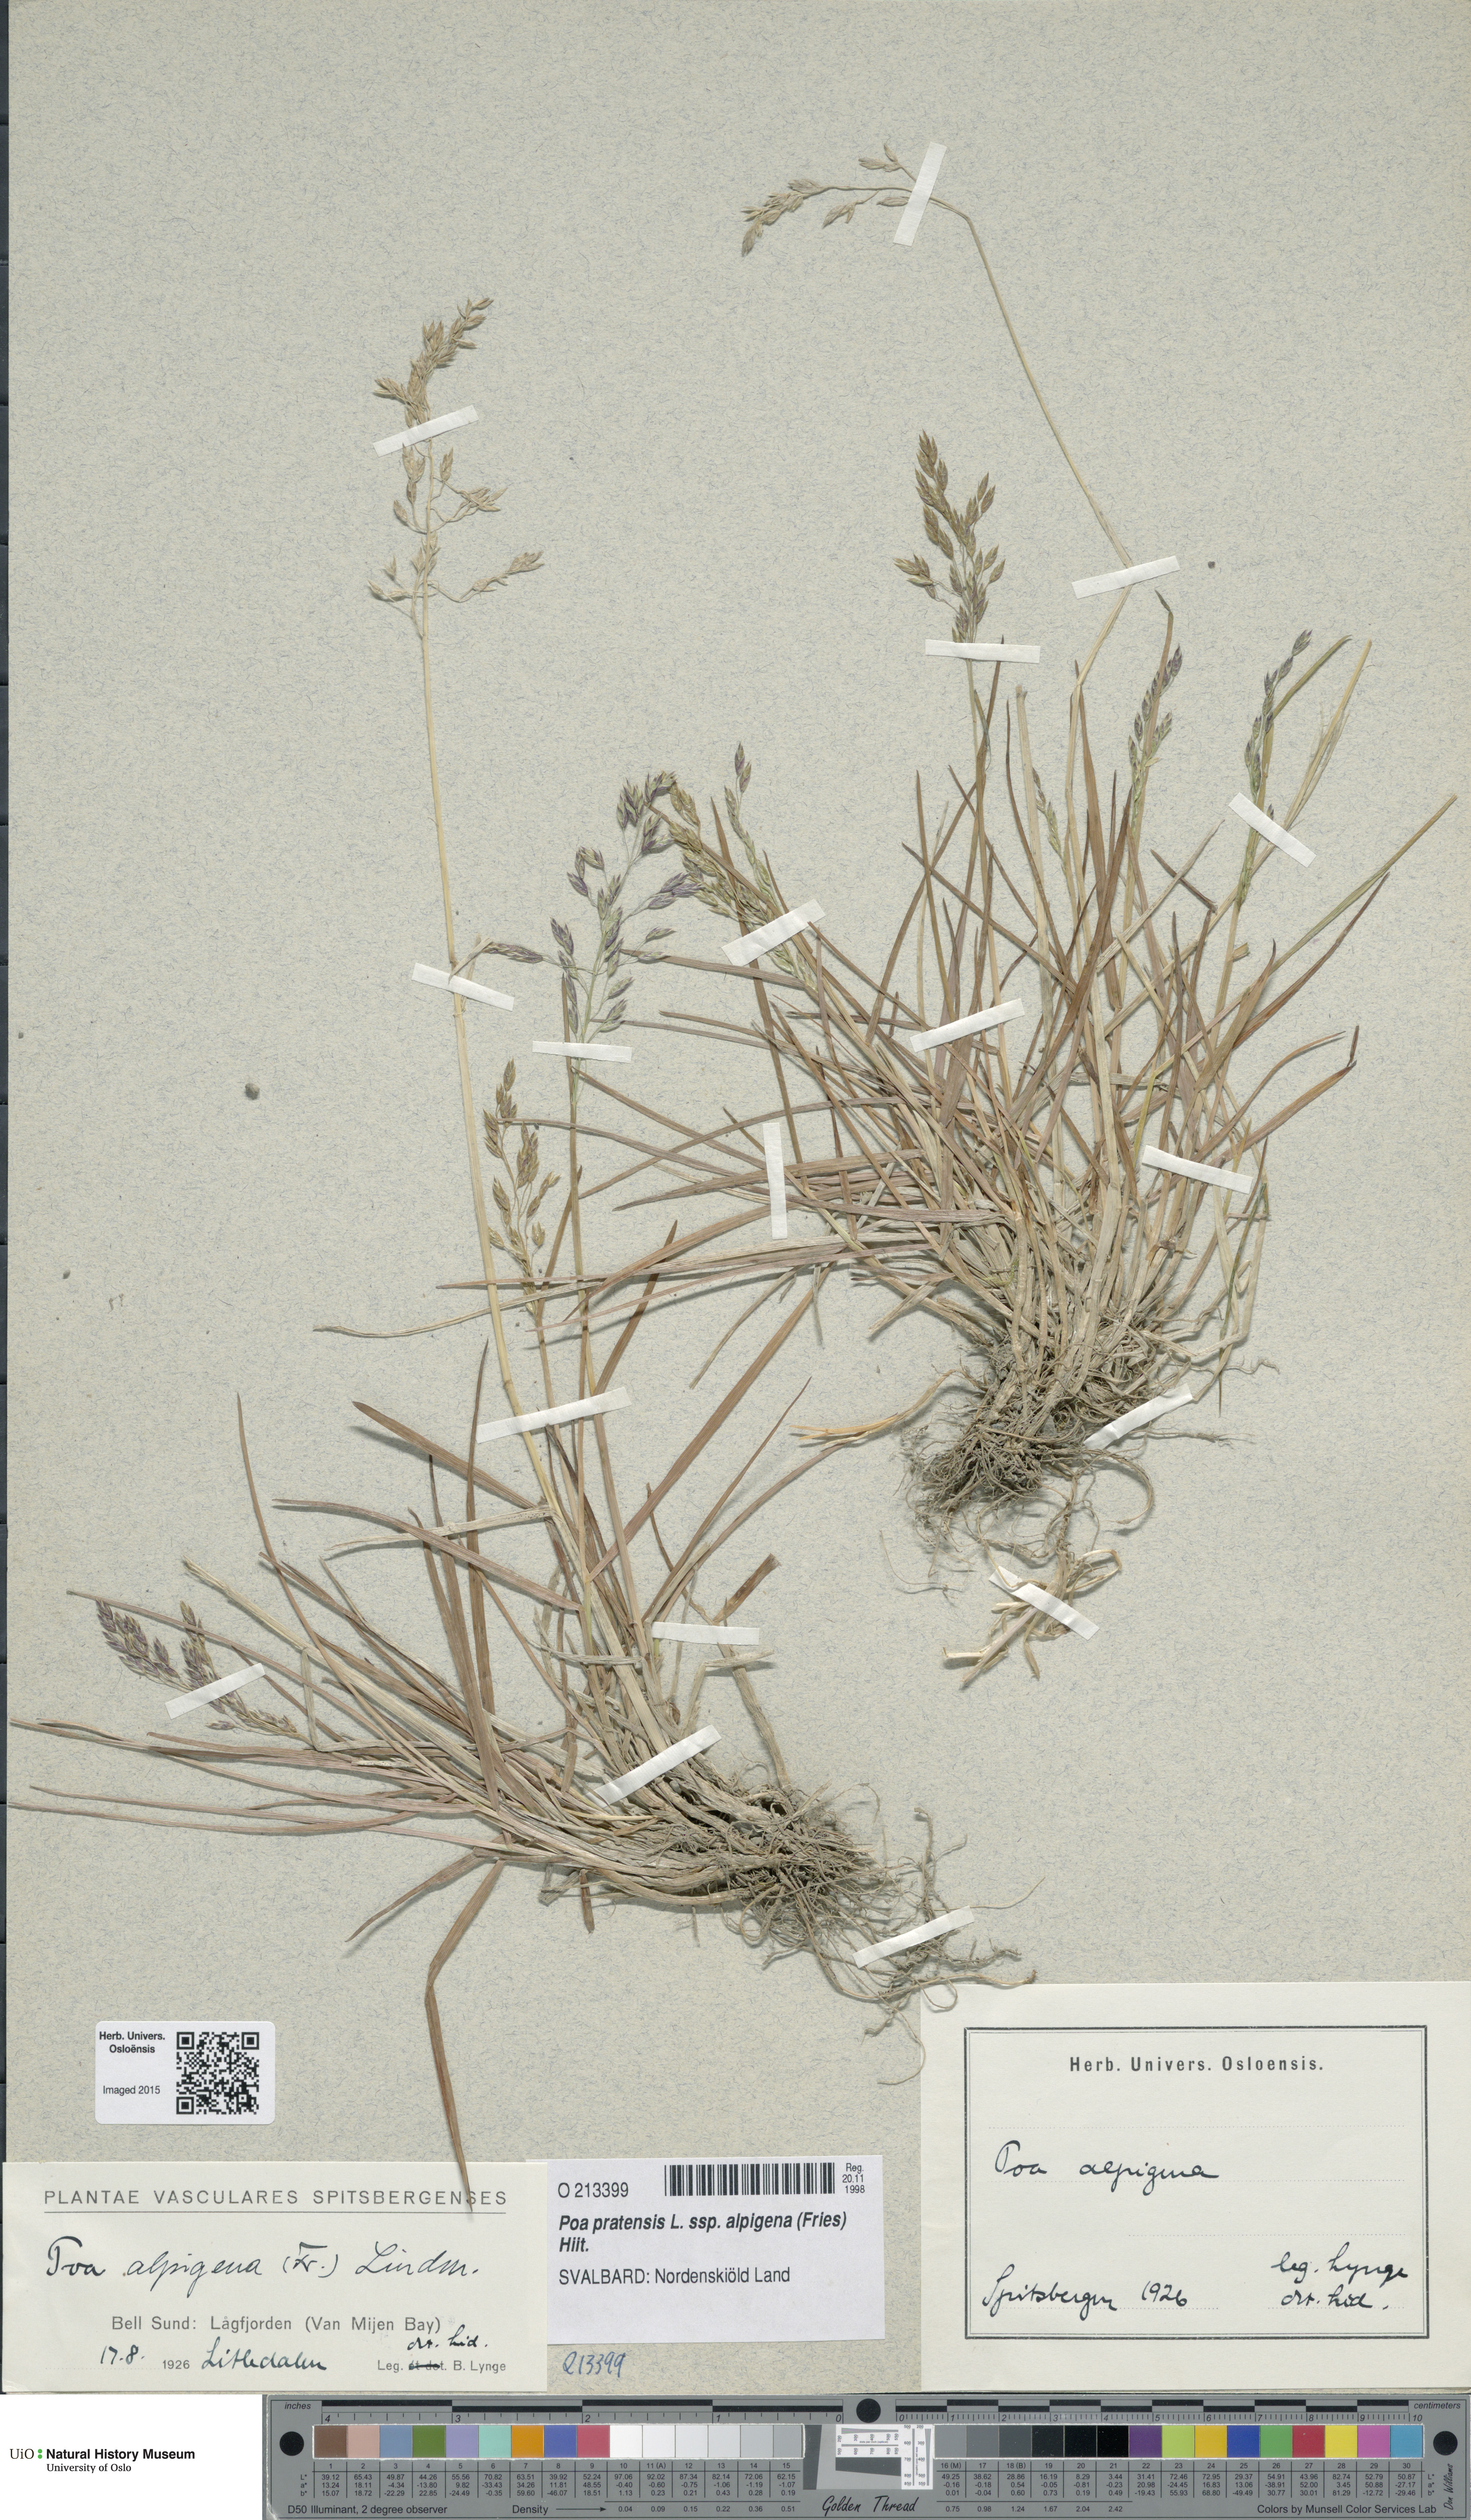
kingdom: Plantae
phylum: Tracheophyta
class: Liliopsida
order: Poales
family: Poaceae
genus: Poa
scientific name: Poa alpigena
